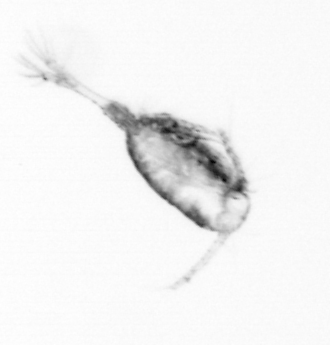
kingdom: Animalia
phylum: Arthropoda
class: Copepoda
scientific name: Copepoda
